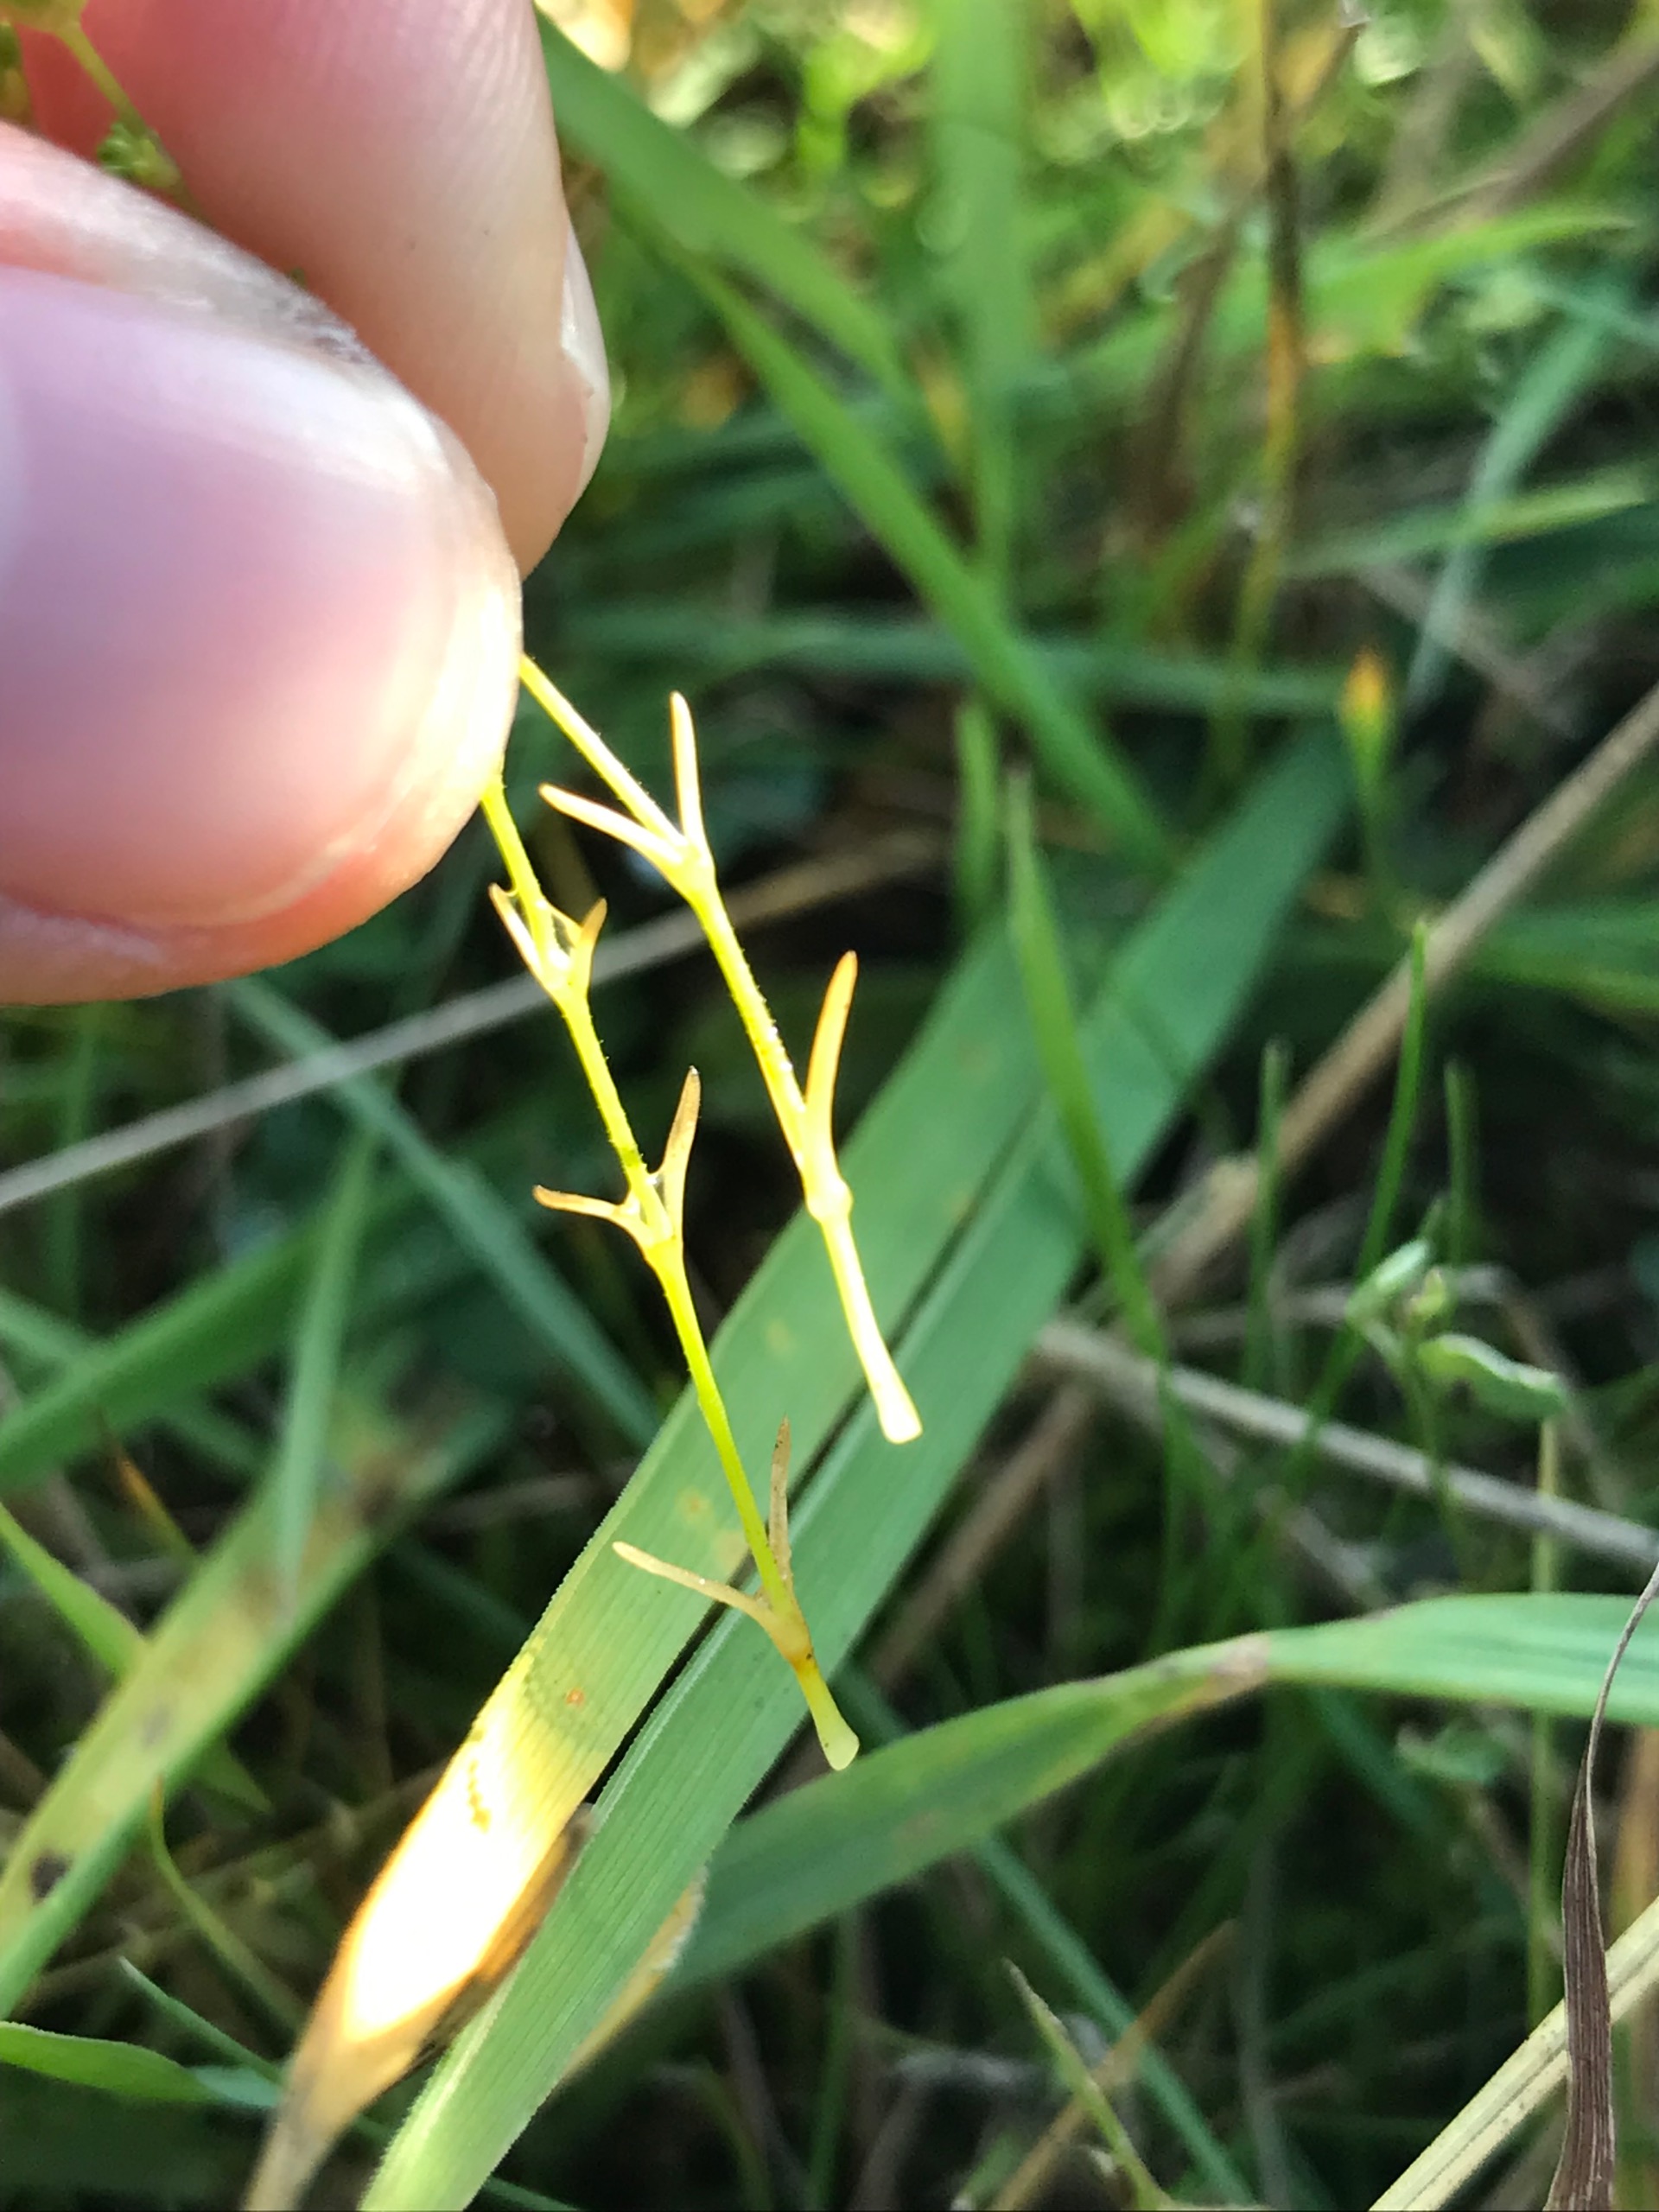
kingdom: Plantae
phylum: Tracheophyta
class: Magnoliopsida
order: Caryophyllales
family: Caryophyllaceae
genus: Sagina
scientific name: Sagina nodosa
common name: Knude-firling
